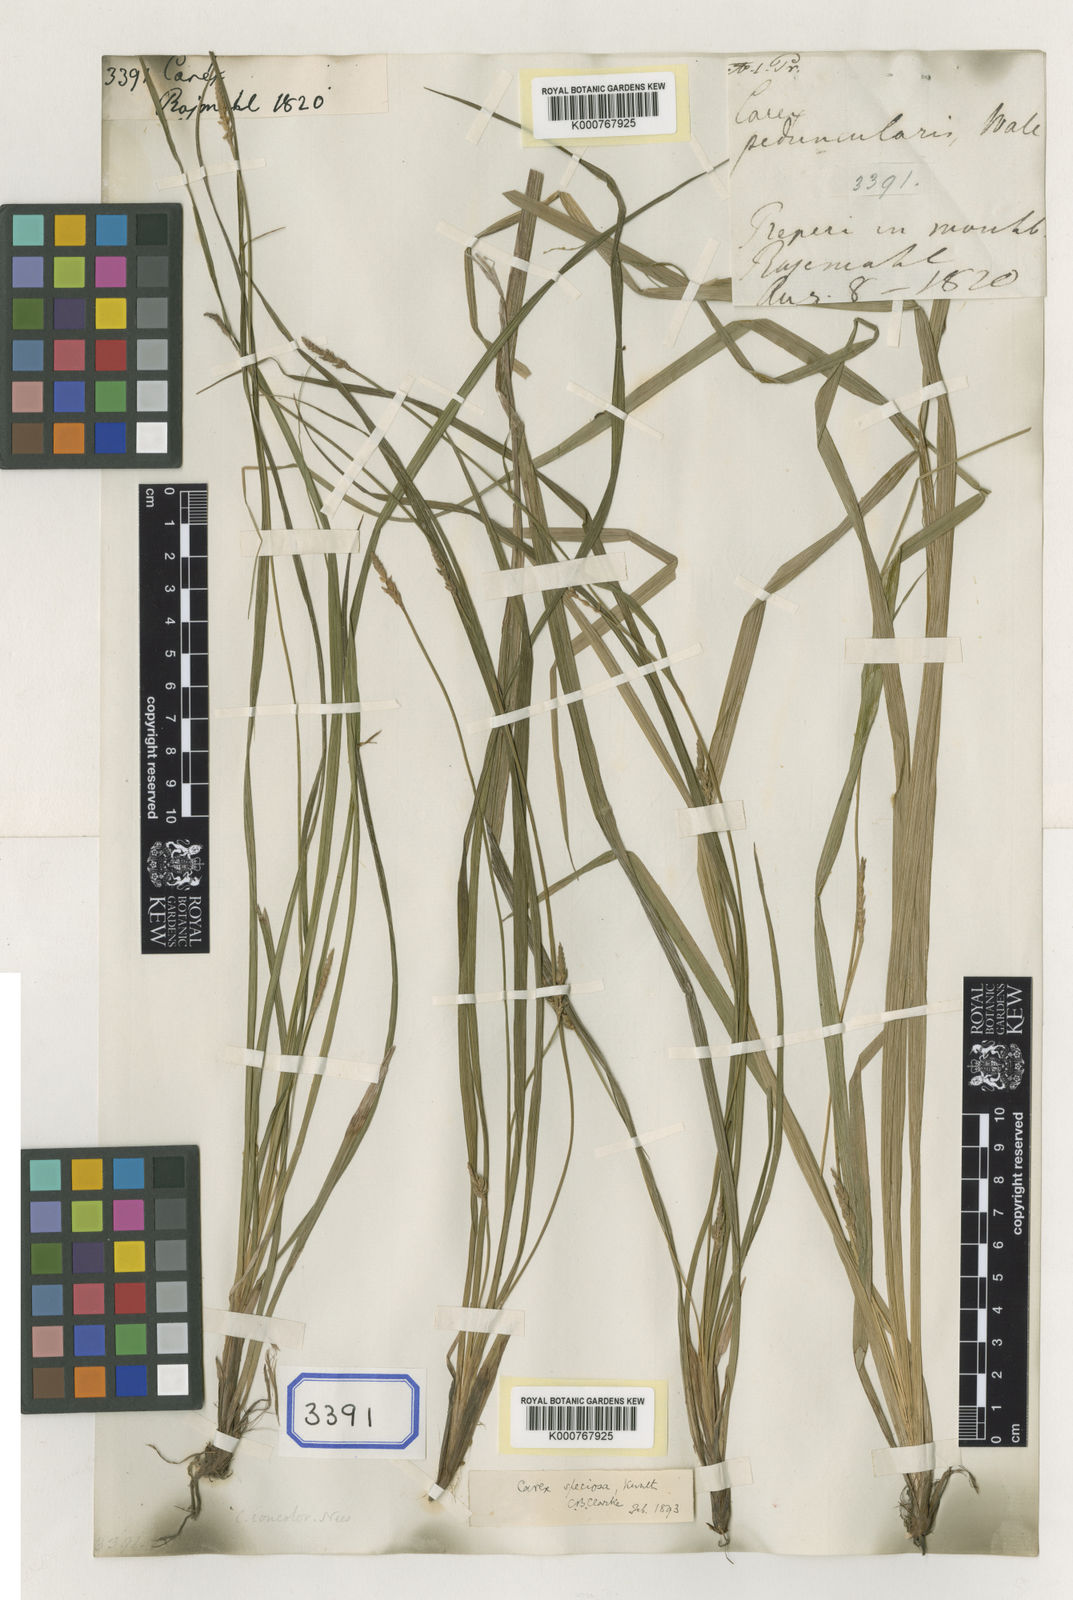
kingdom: Plantae
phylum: Tracheophyta
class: Liliopsida
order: Poales
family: Cyperaceae
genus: Carex
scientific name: Carex
